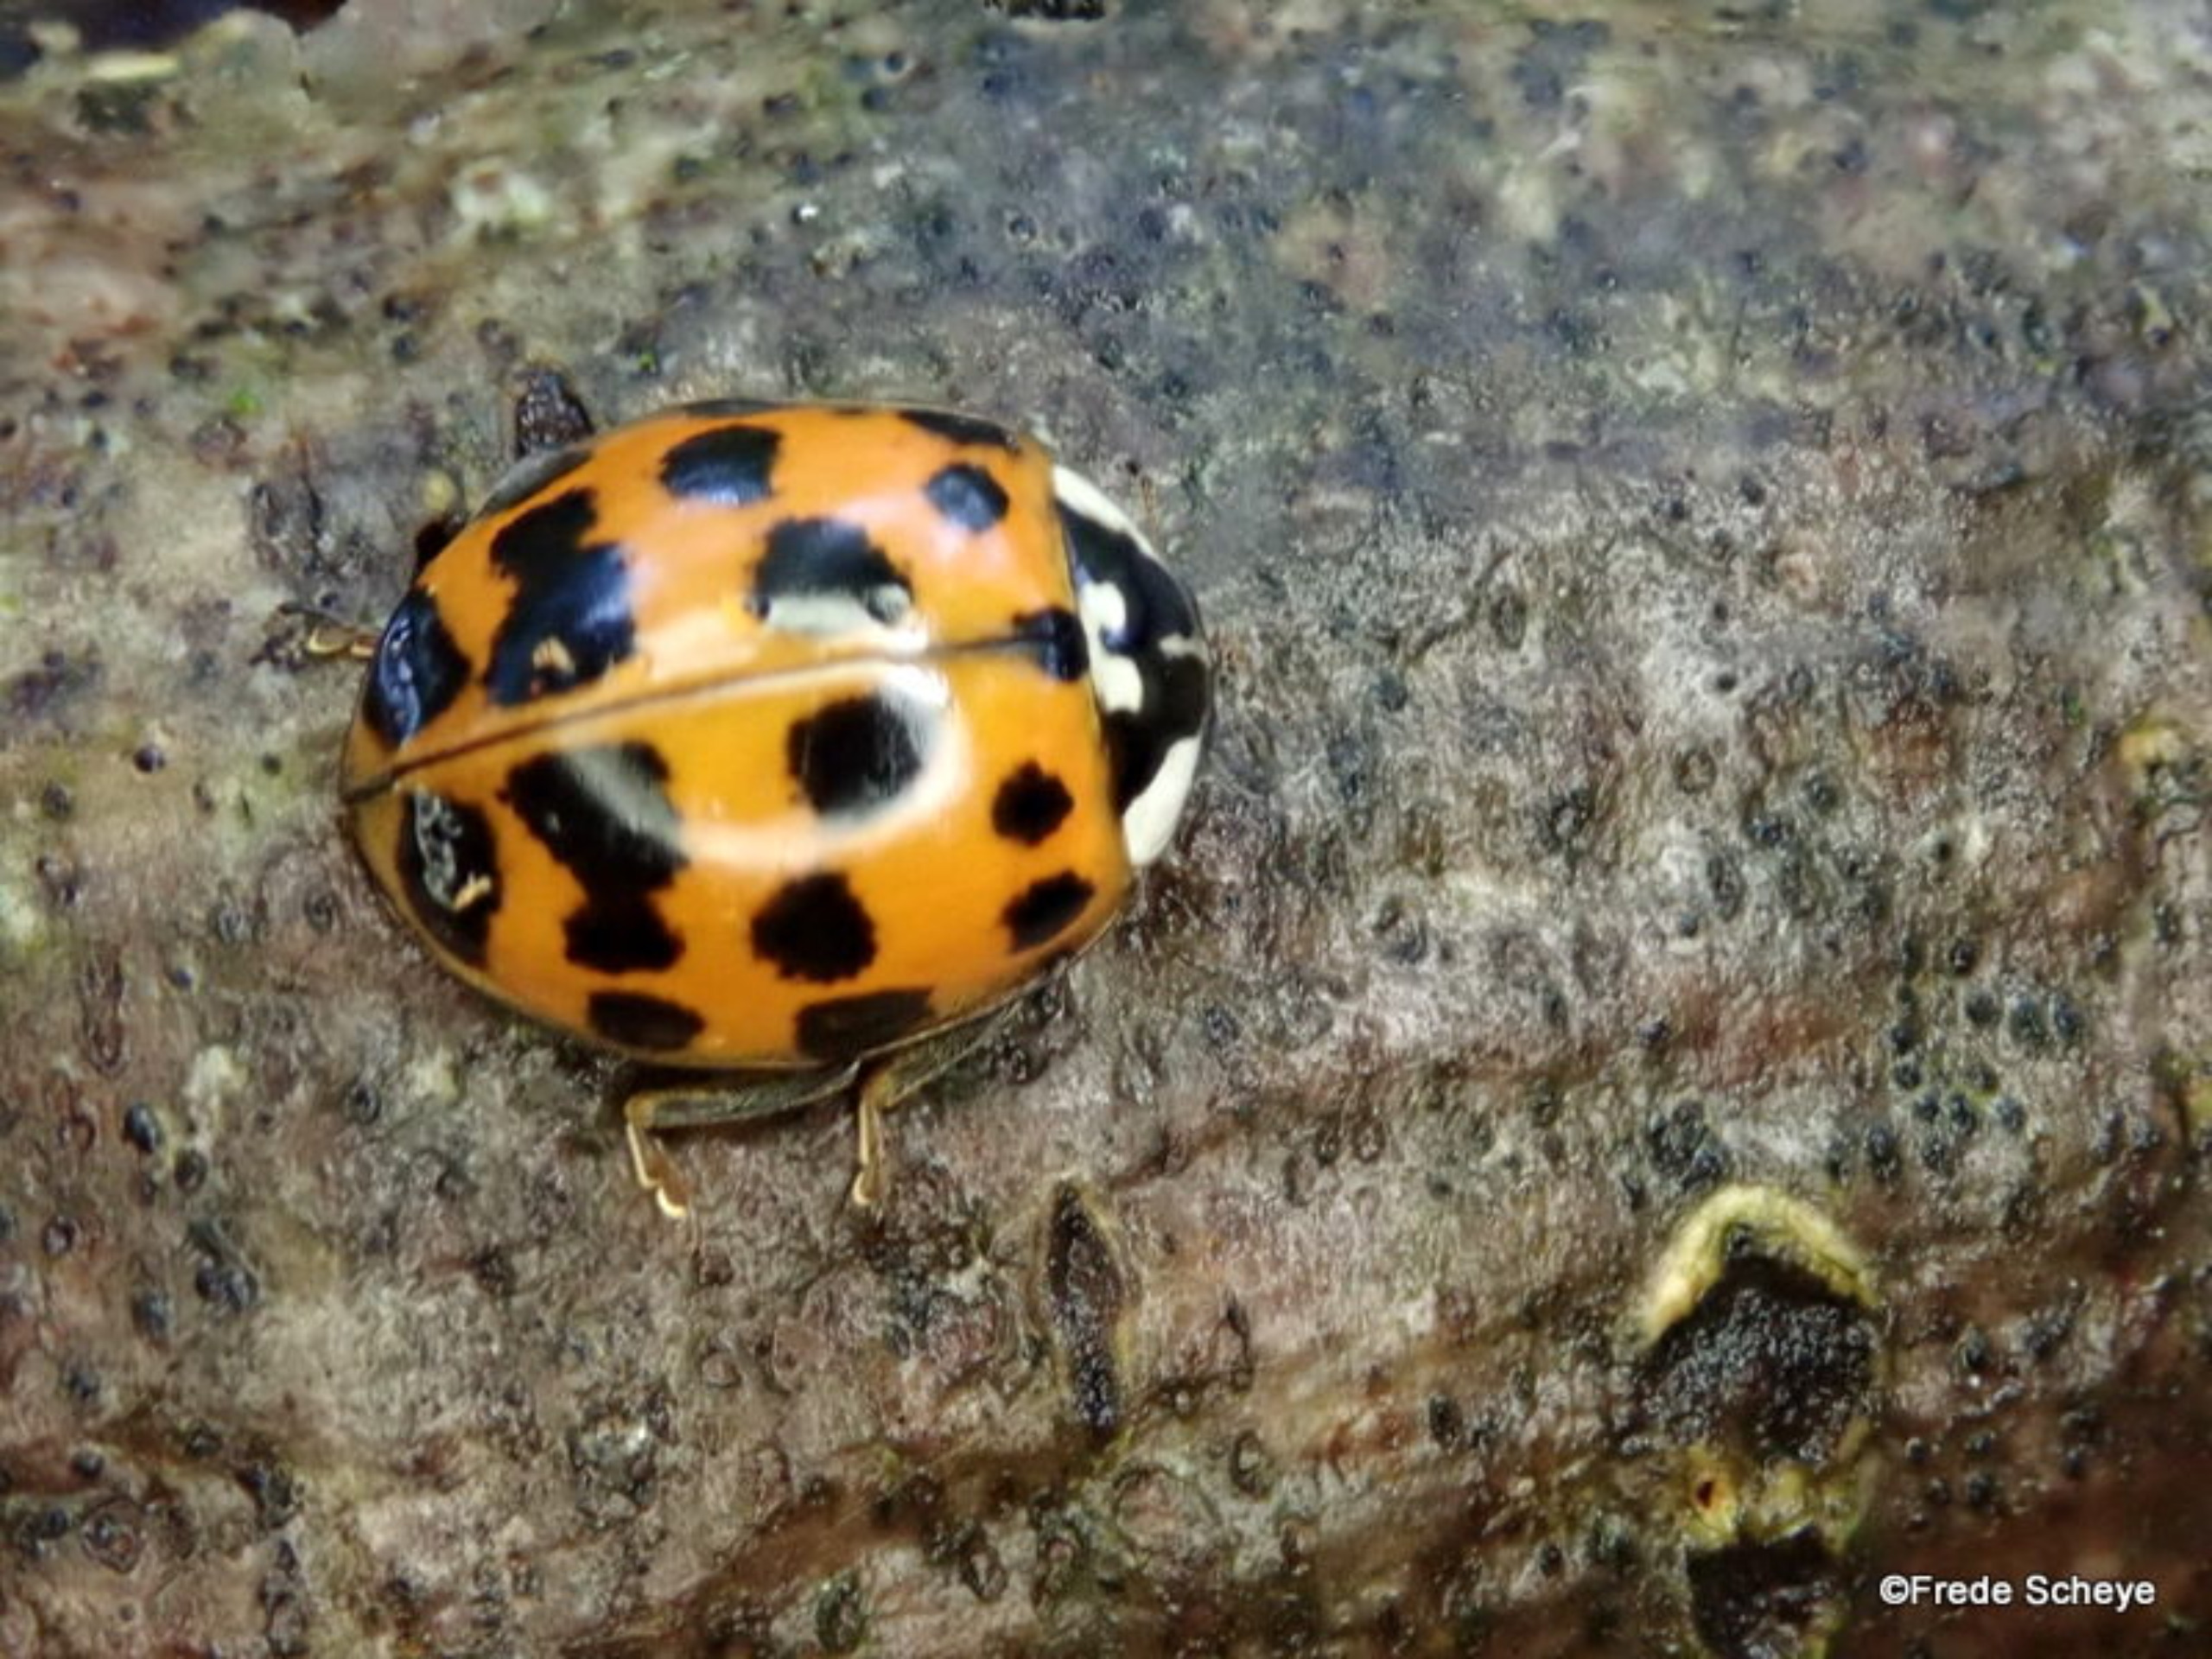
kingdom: Animalia
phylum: Arthropoda
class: Insecta
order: Coleoptera
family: Coccinellidae
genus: Harmonia
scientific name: Harmonia axyridis
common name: Harlekinmariehøne
